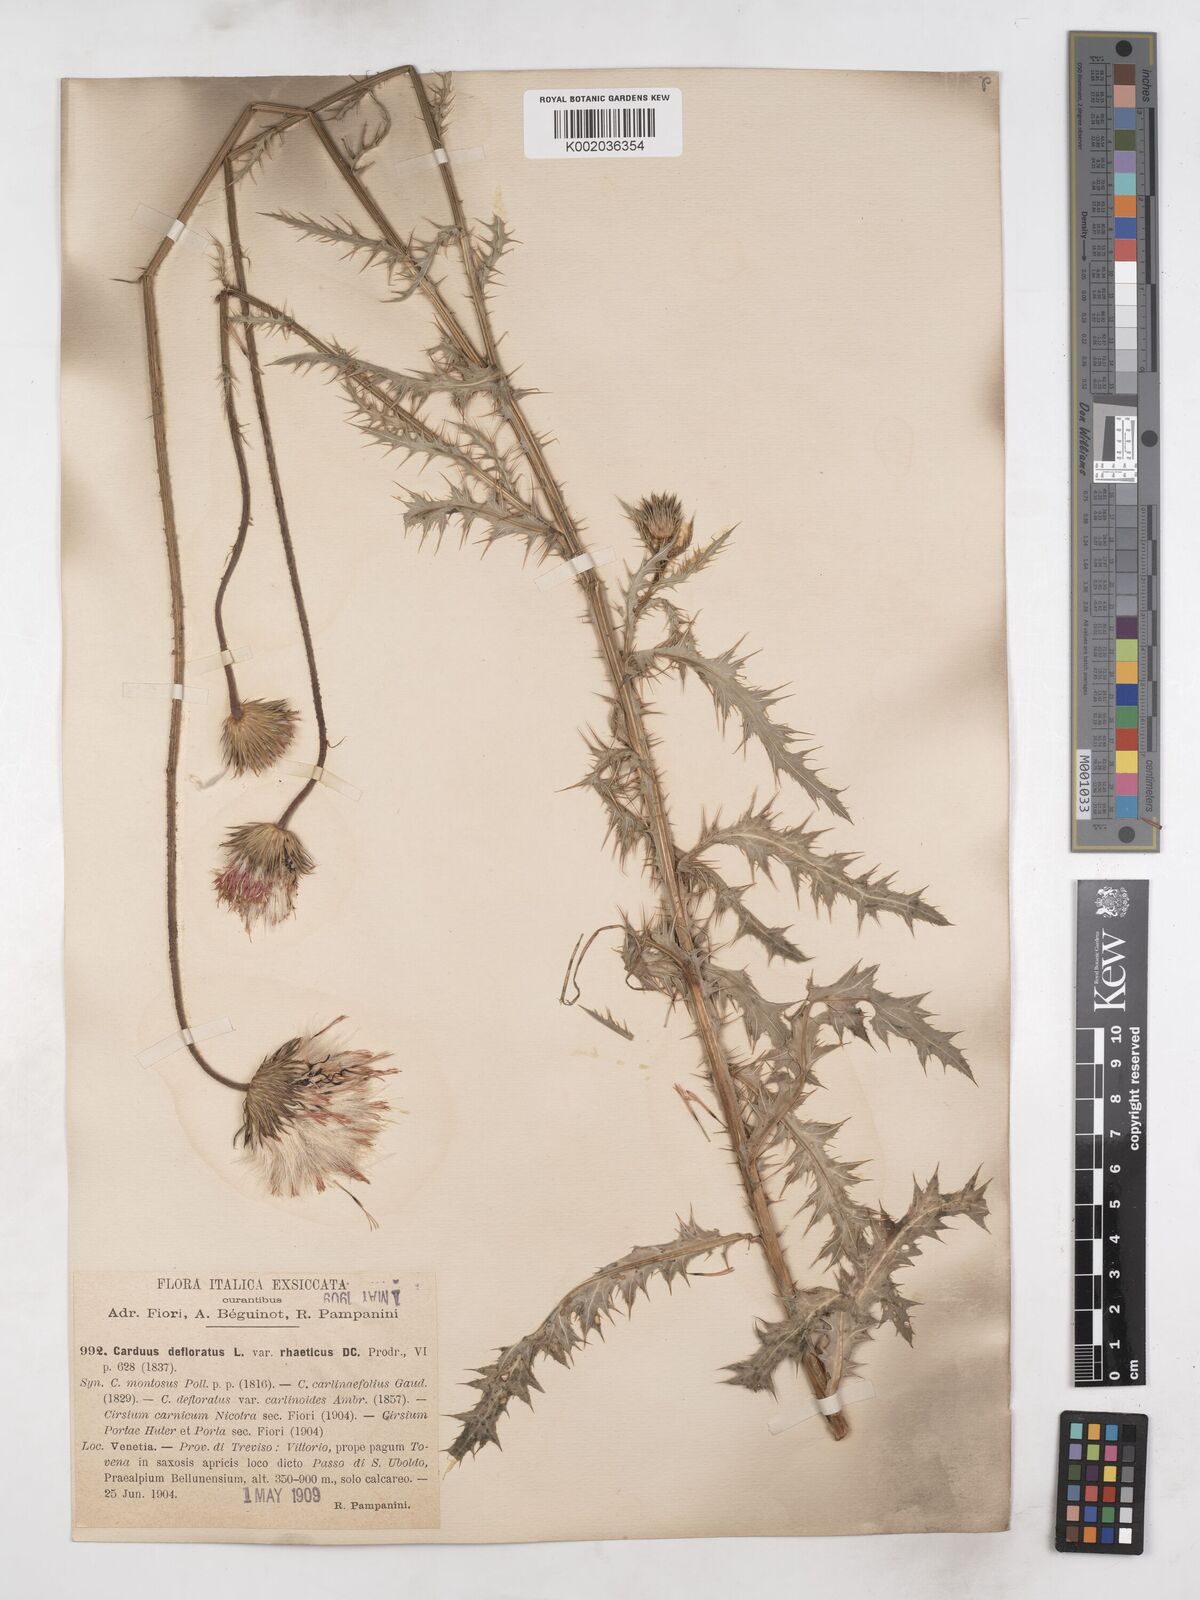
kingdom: Plantae
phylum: Tracheophyta
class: Magnoliopsida
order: Asterales
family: Asteraceae
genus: Carduus
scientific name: Carduus defloratus
